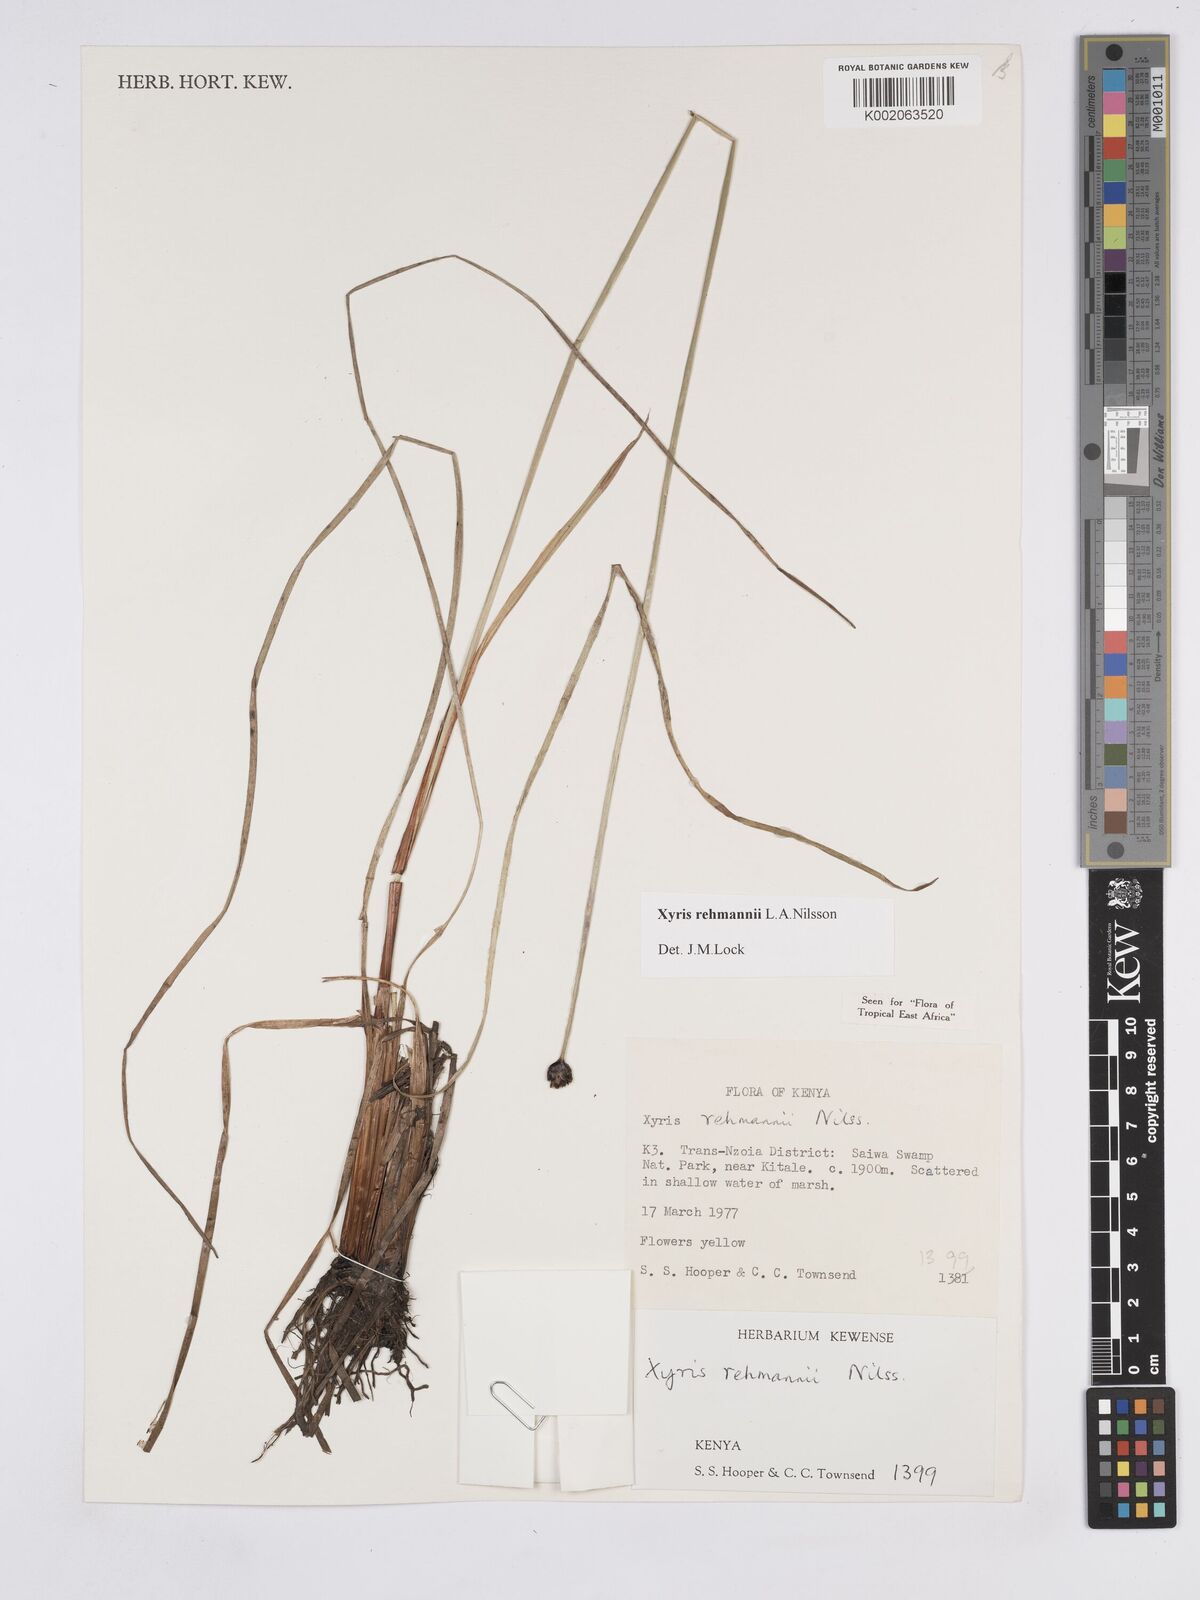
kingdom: Plantae
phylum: Tracheophyta
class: Liliopsida
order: Poales
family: Xyridaceae
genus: Xyris
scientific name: Xyris rehmannii
